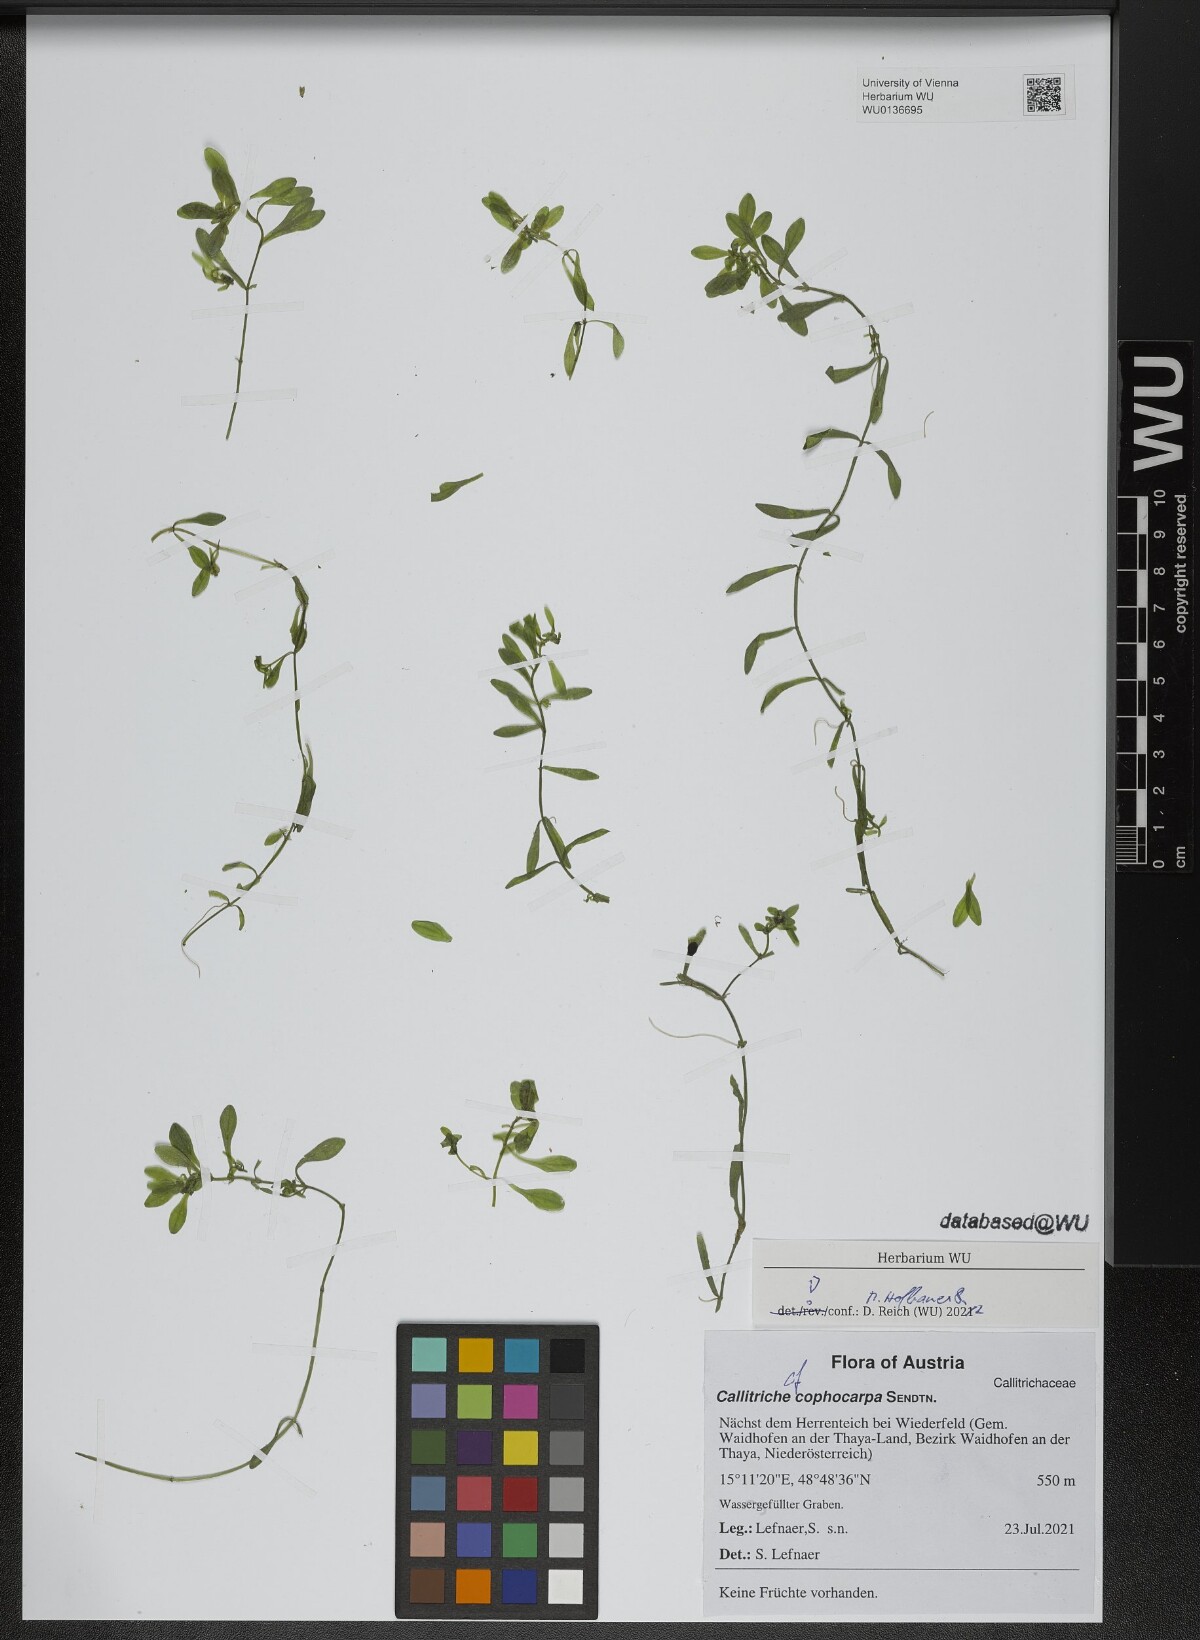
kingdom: Plantae
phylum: Tracheophyta
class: Magnoliopsida
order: Lamiales
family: Plantaginaceae
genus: Callitriche
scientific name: Callitriche cophocarpa
